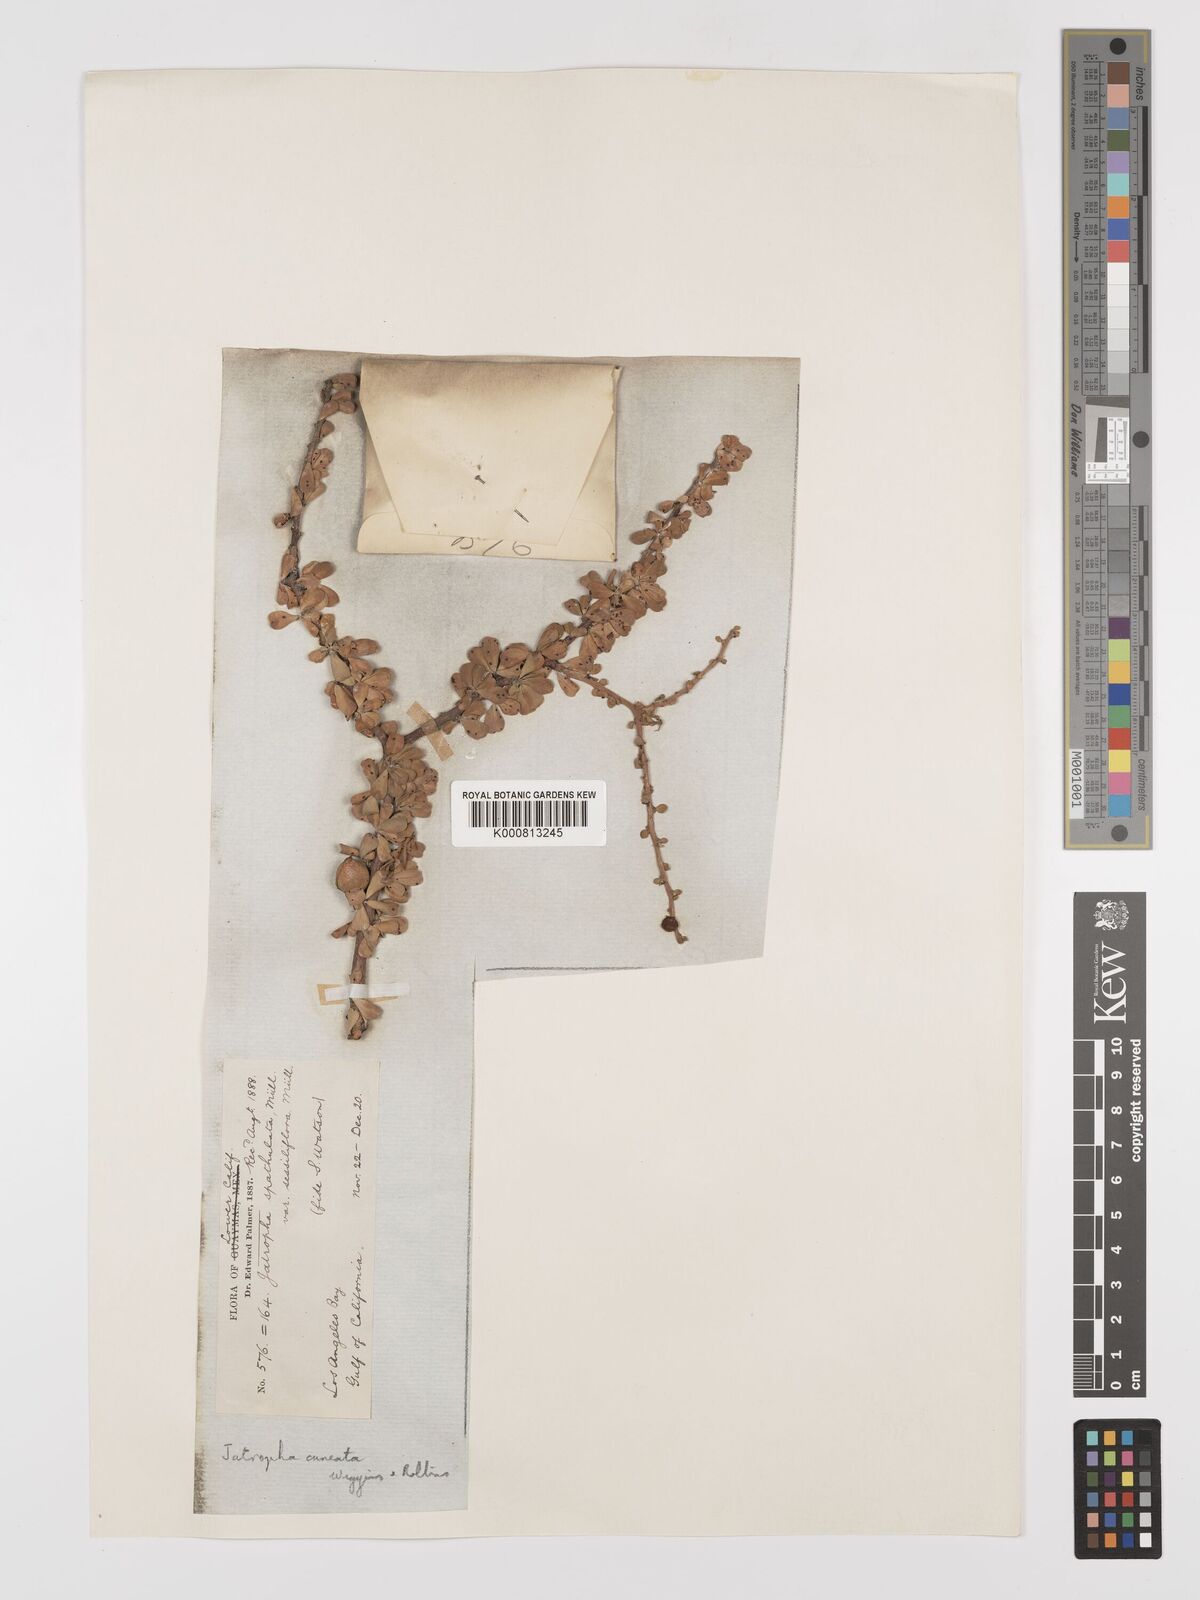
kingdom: Plantae
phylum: Tracheophyta
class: Magnoliopsida
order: Malpighiales
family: Euphorbiaceae
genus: Jatropha
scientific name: Jatropha cuneata
